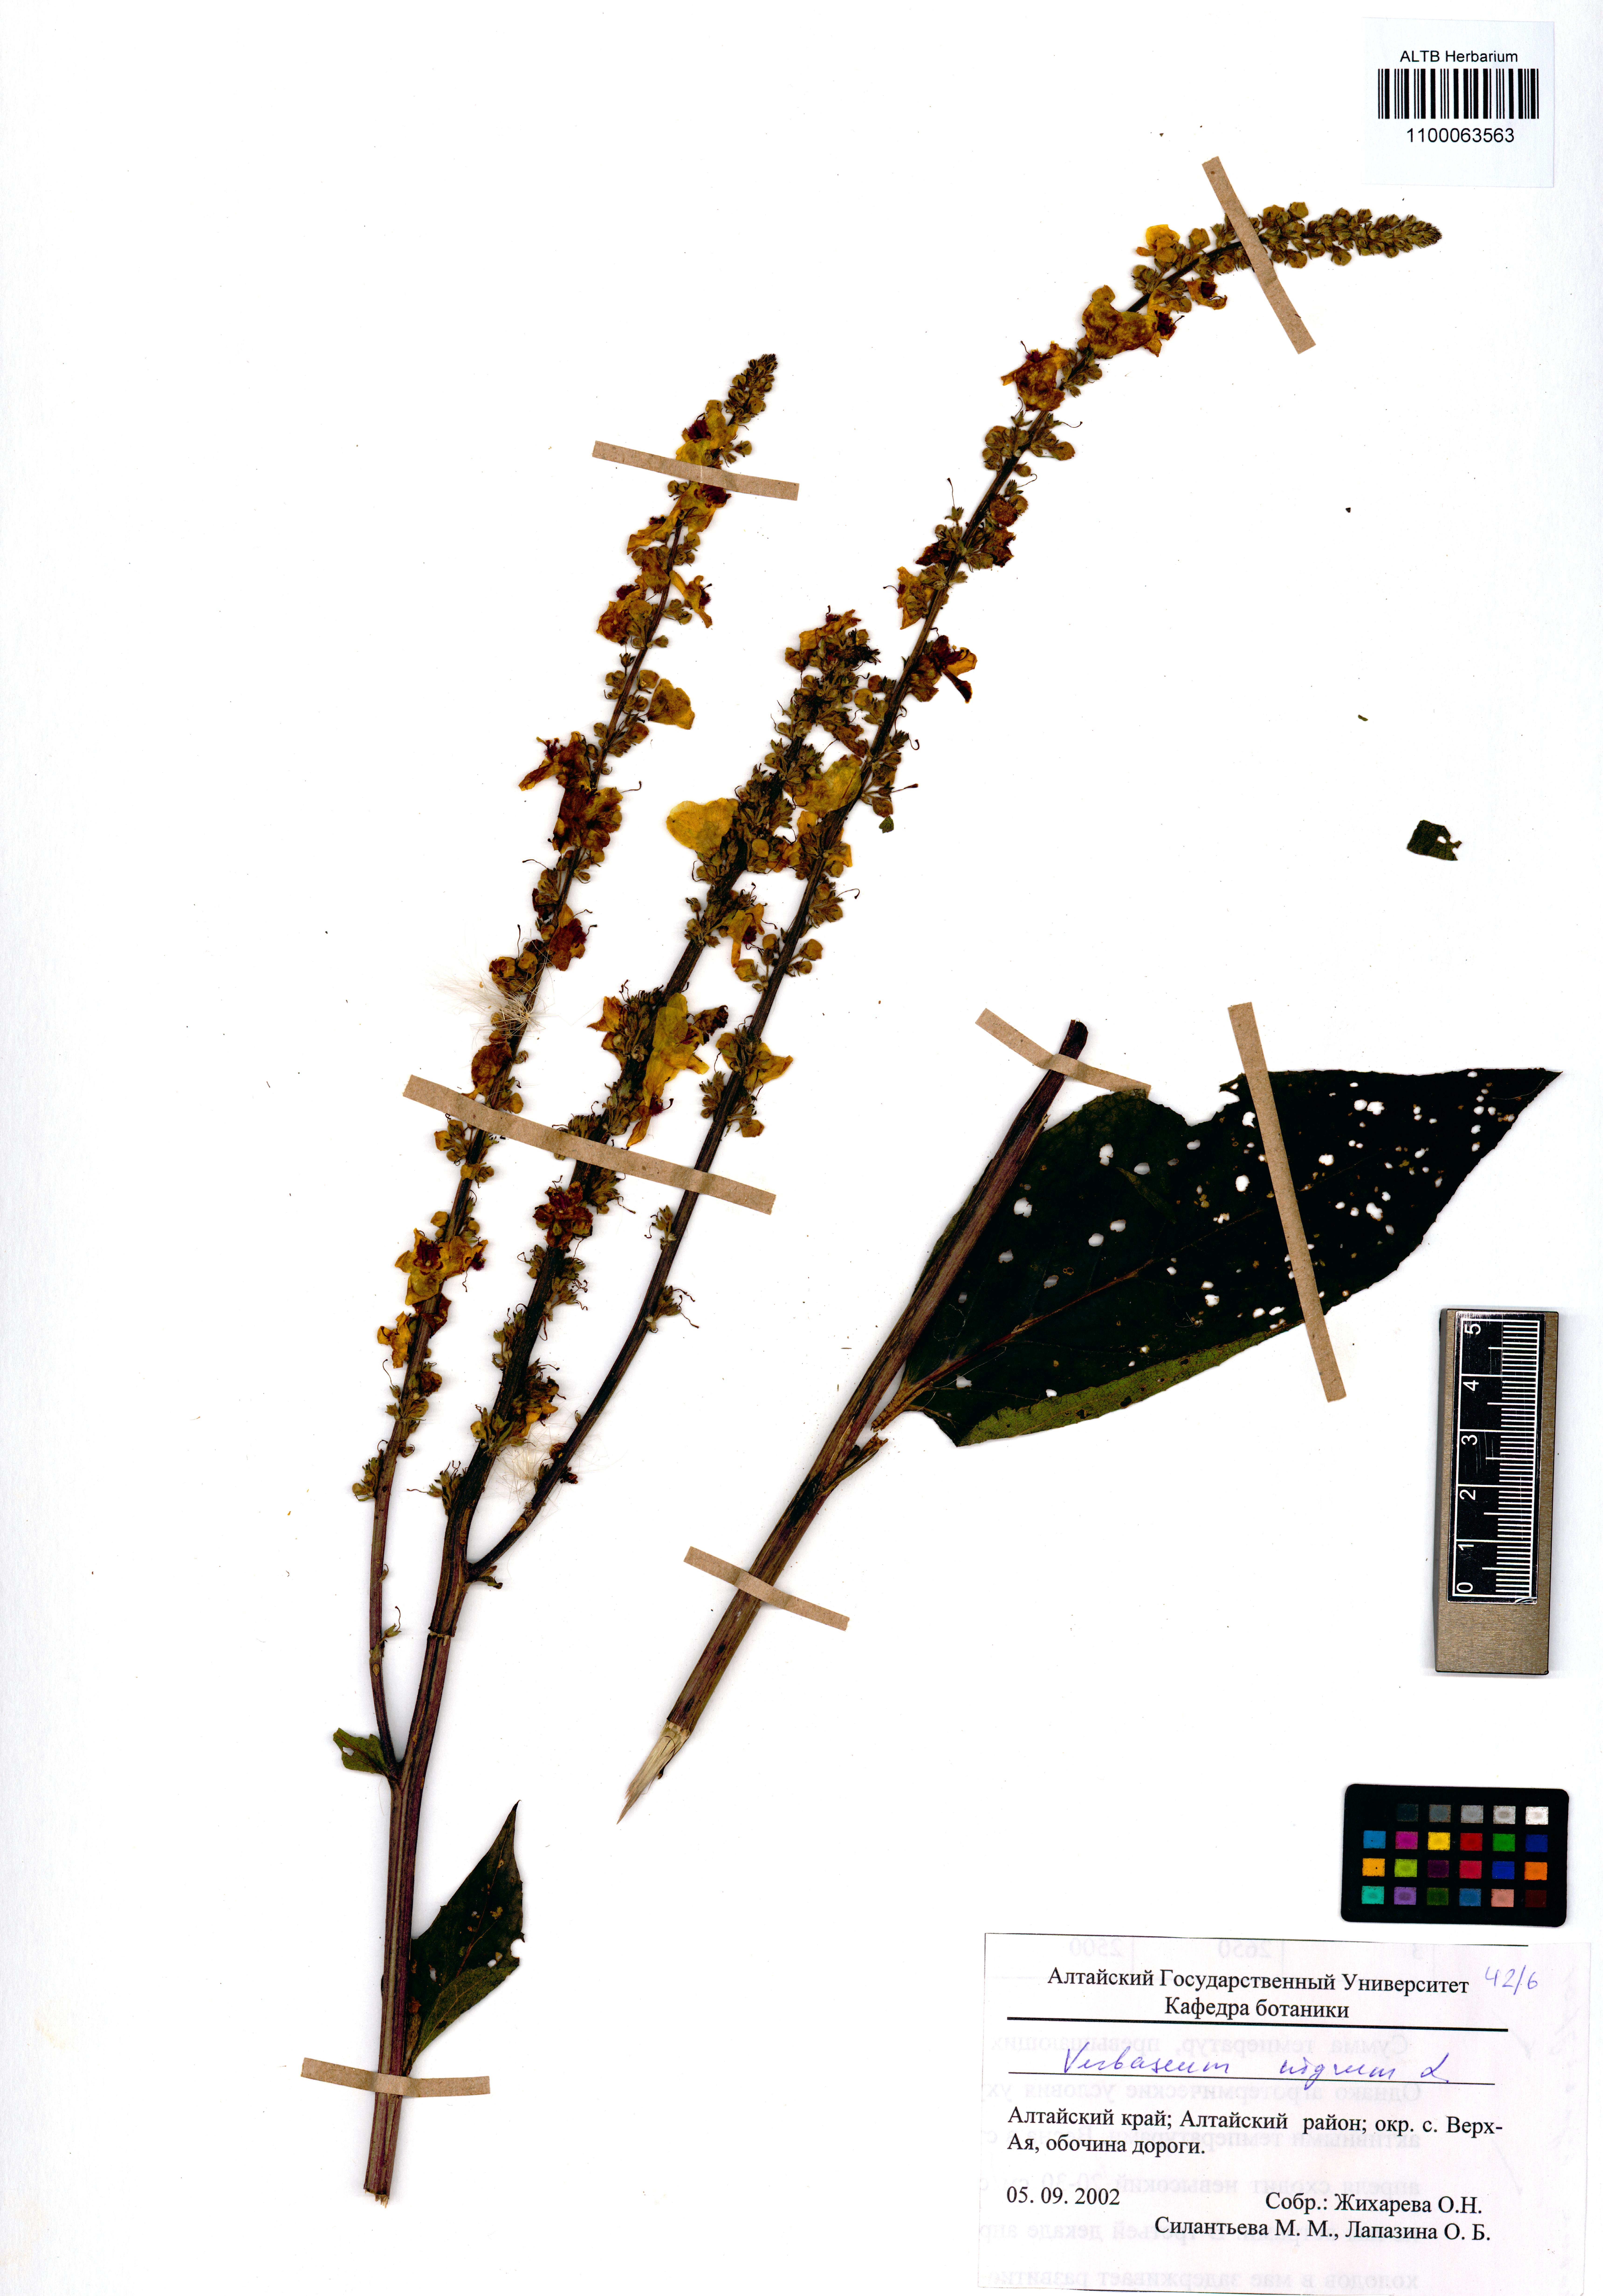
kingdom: Plantae
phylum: Tracheophyta
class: Magnoliopsida
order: Lamiales
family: Scrophulariaceae
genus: Verbascum
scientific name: Verbascum nigrum
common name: Dark mullein
